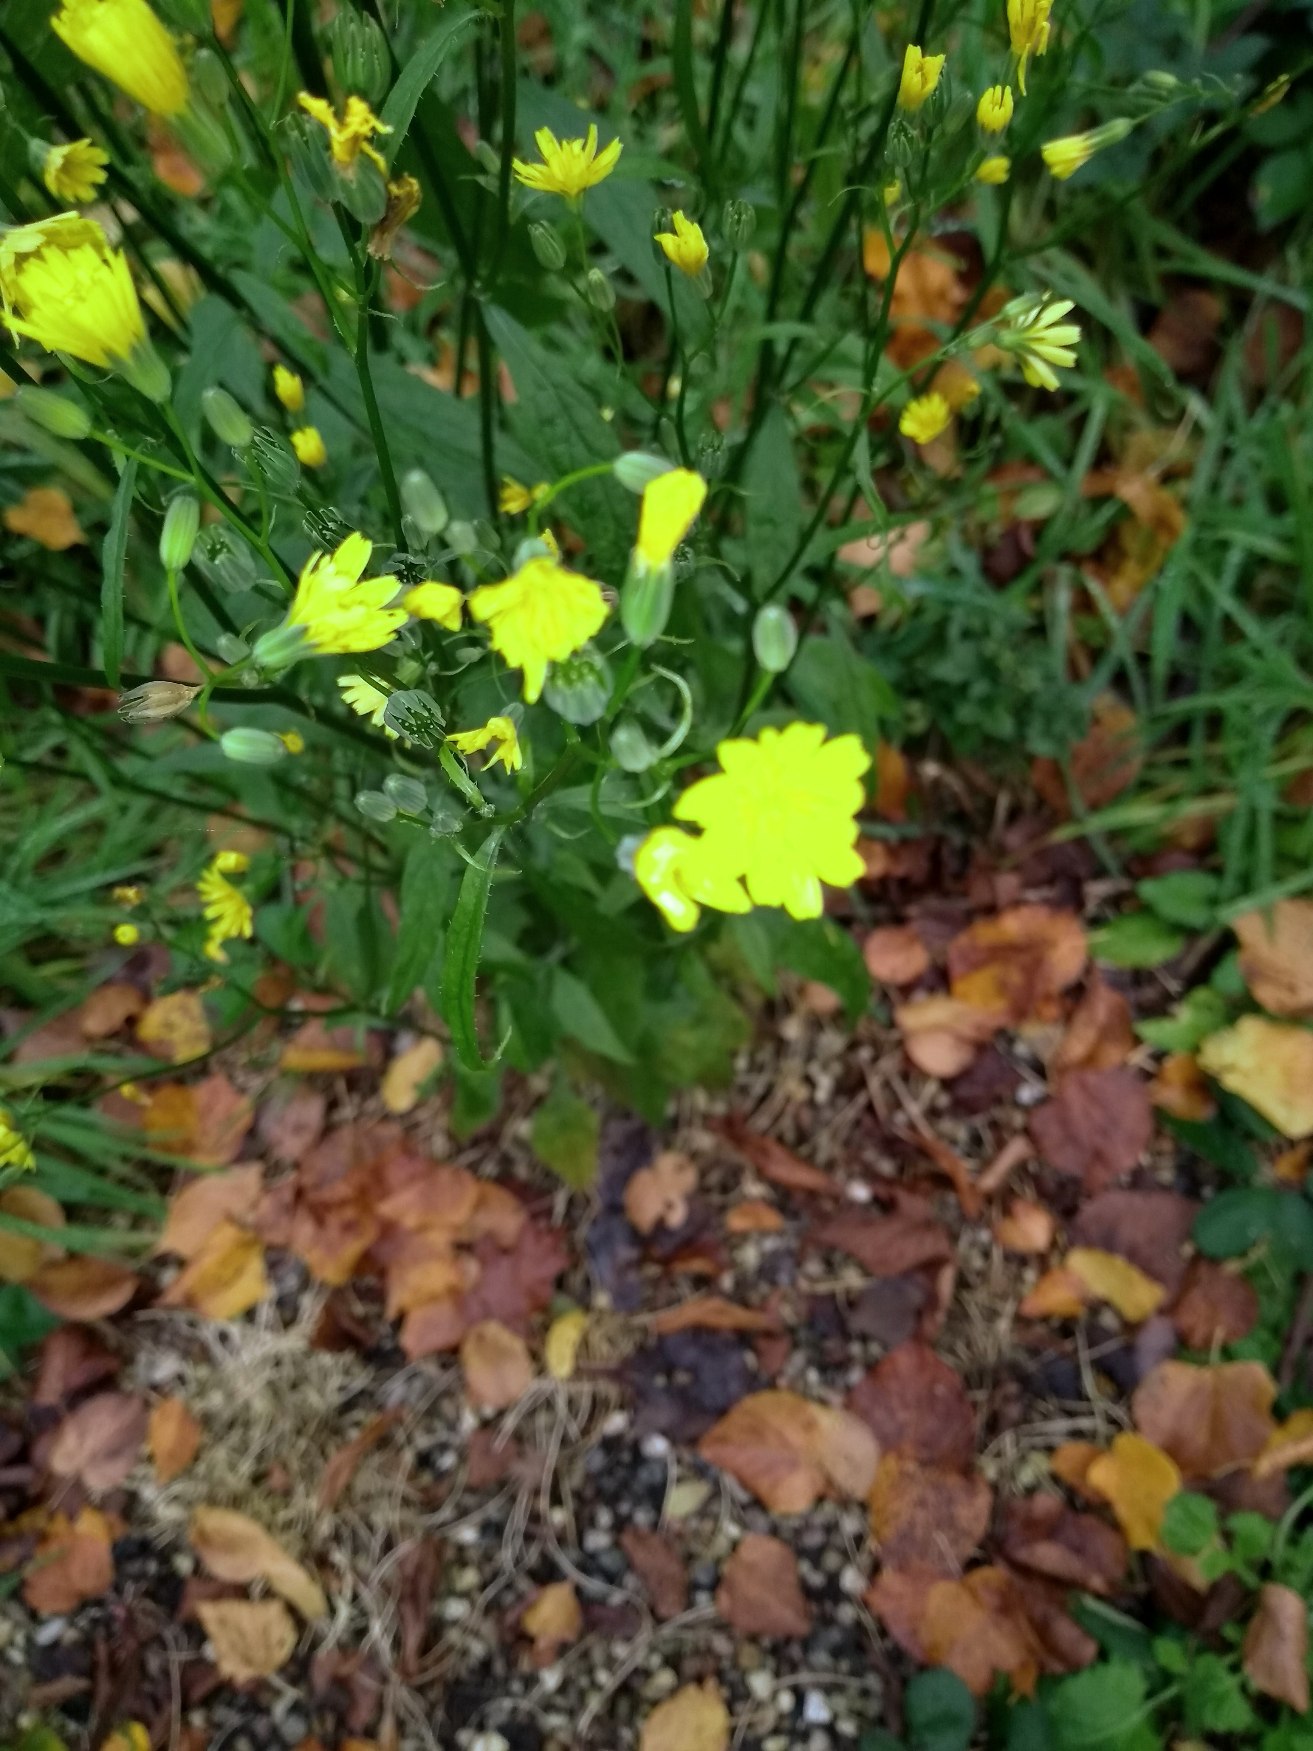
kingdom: Plantae
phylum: Tracheophyta
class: Magnoliopsida
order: Asterales
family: Asteraceae
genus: Lapsana
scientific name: Lapsana communis
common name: Haremad
